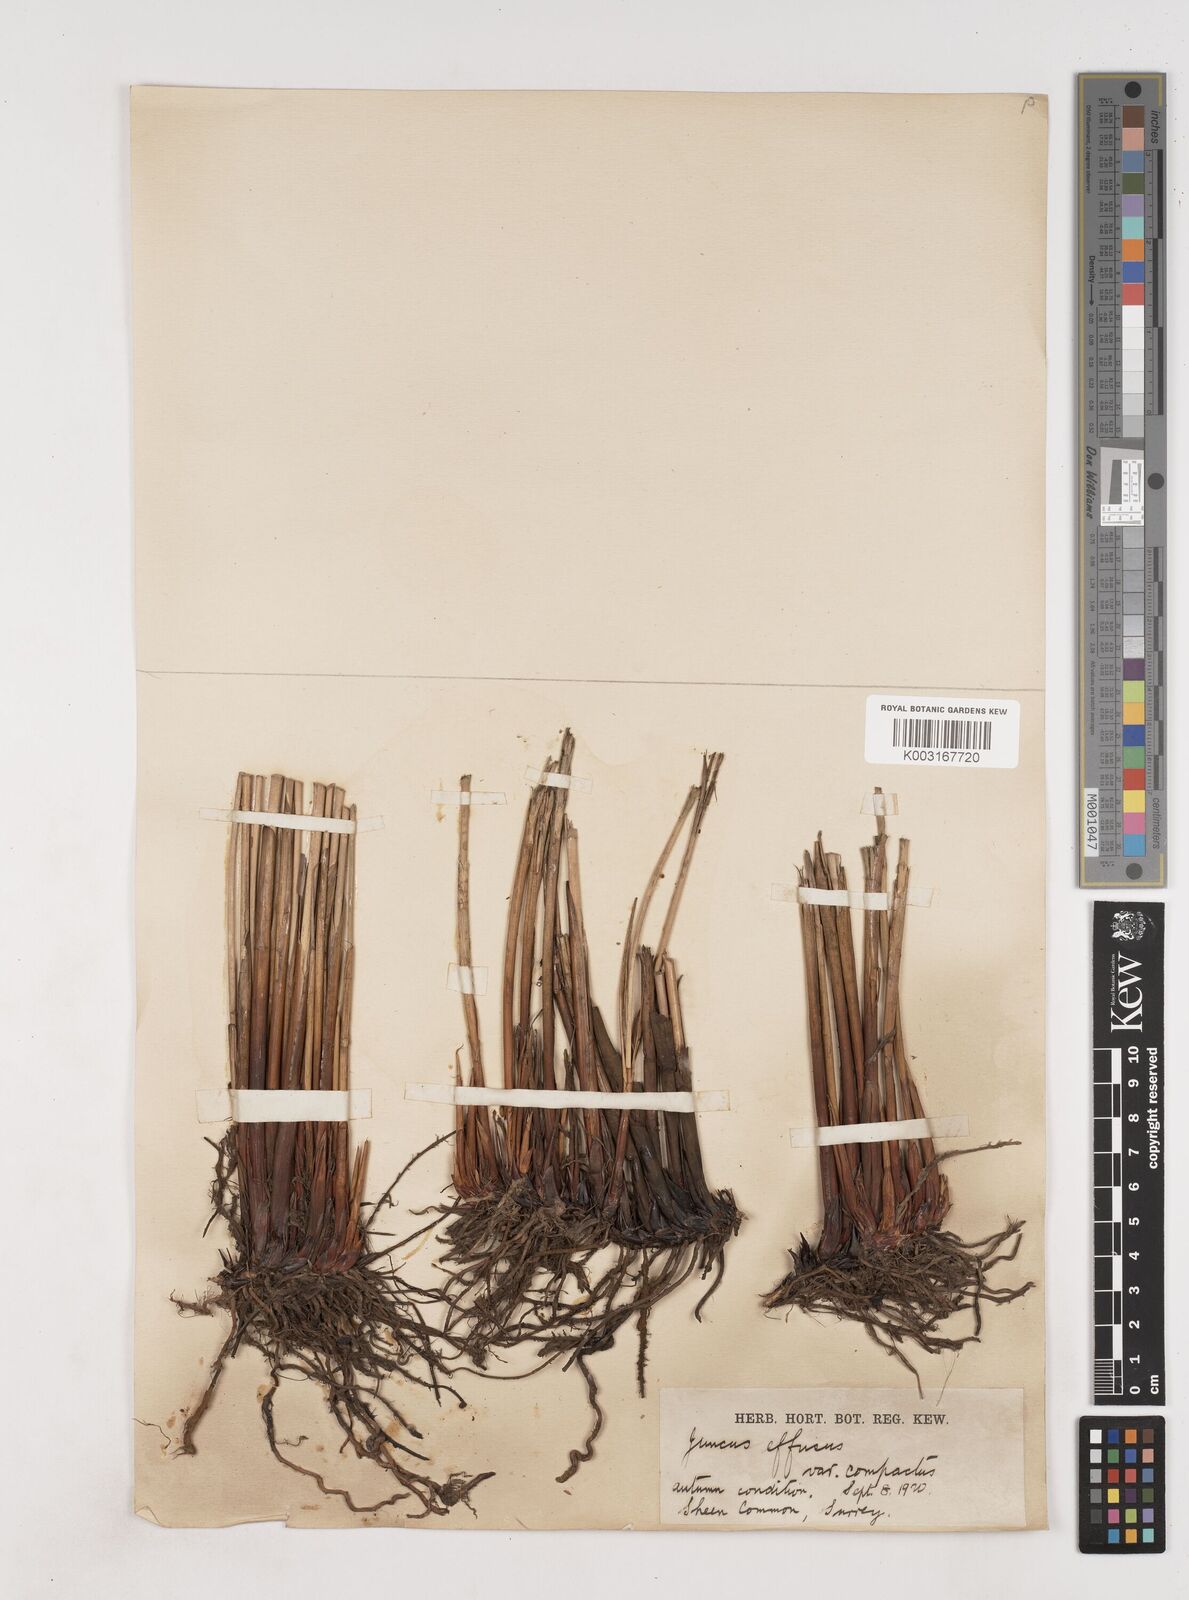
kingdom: Plantae
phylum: Tracheophyta
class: Liliopsida
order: Poales
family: Juncaceae
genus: Juncus
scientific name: Juncus effusus
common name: Soft rush
